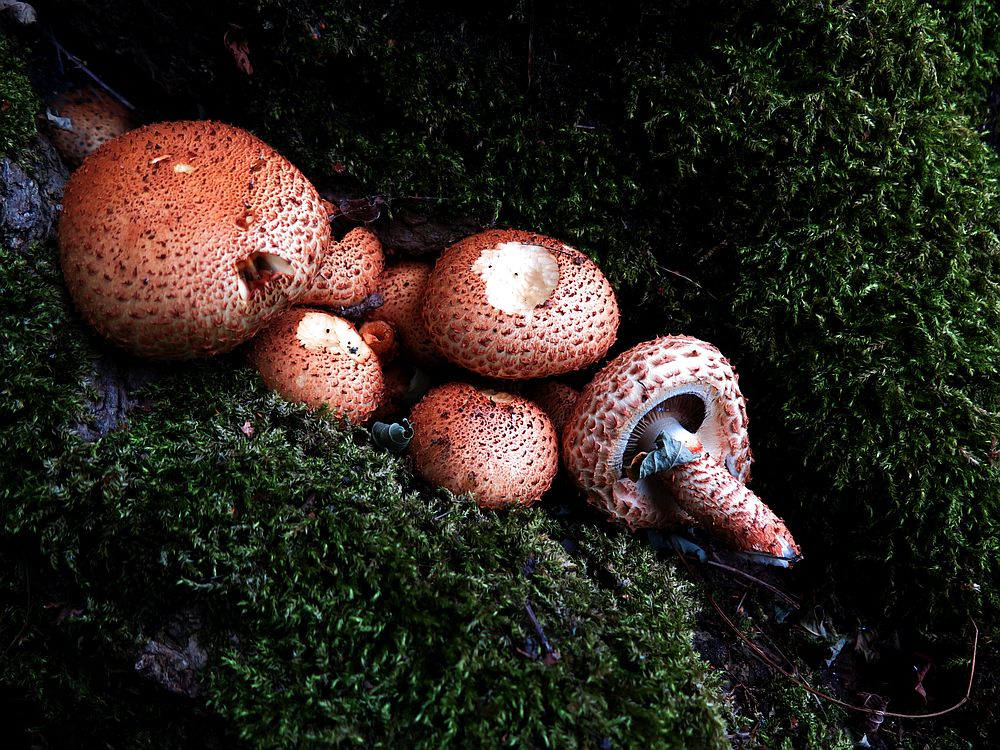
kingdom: Fungi
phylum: Basidiomycota
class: Agaricomycetes
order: Agaricales
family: Strophariaceae
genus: Pholiota
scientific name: Pholiota squarrosa
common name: krumskællet skælhat
